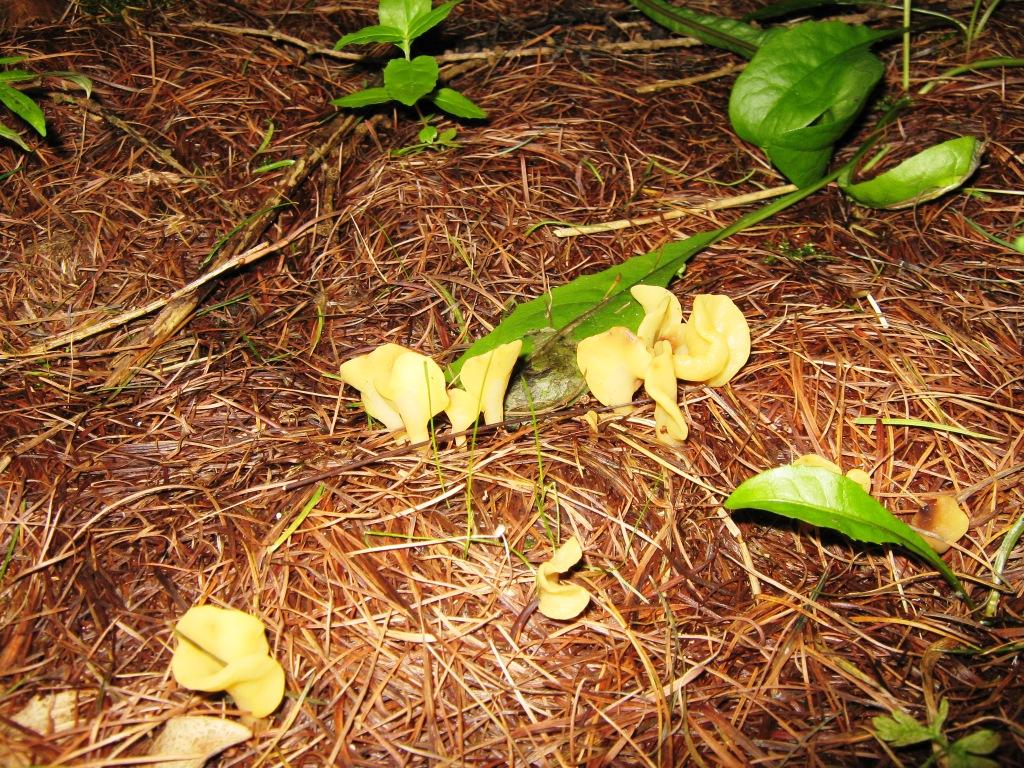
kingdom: Fungi
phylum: Ascomycota
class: Leotiomycetes
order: Rhytismatales
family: Cudoniaceae
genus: Spathularia
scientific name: Spathularia flavida
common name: gul spatelsvamp
